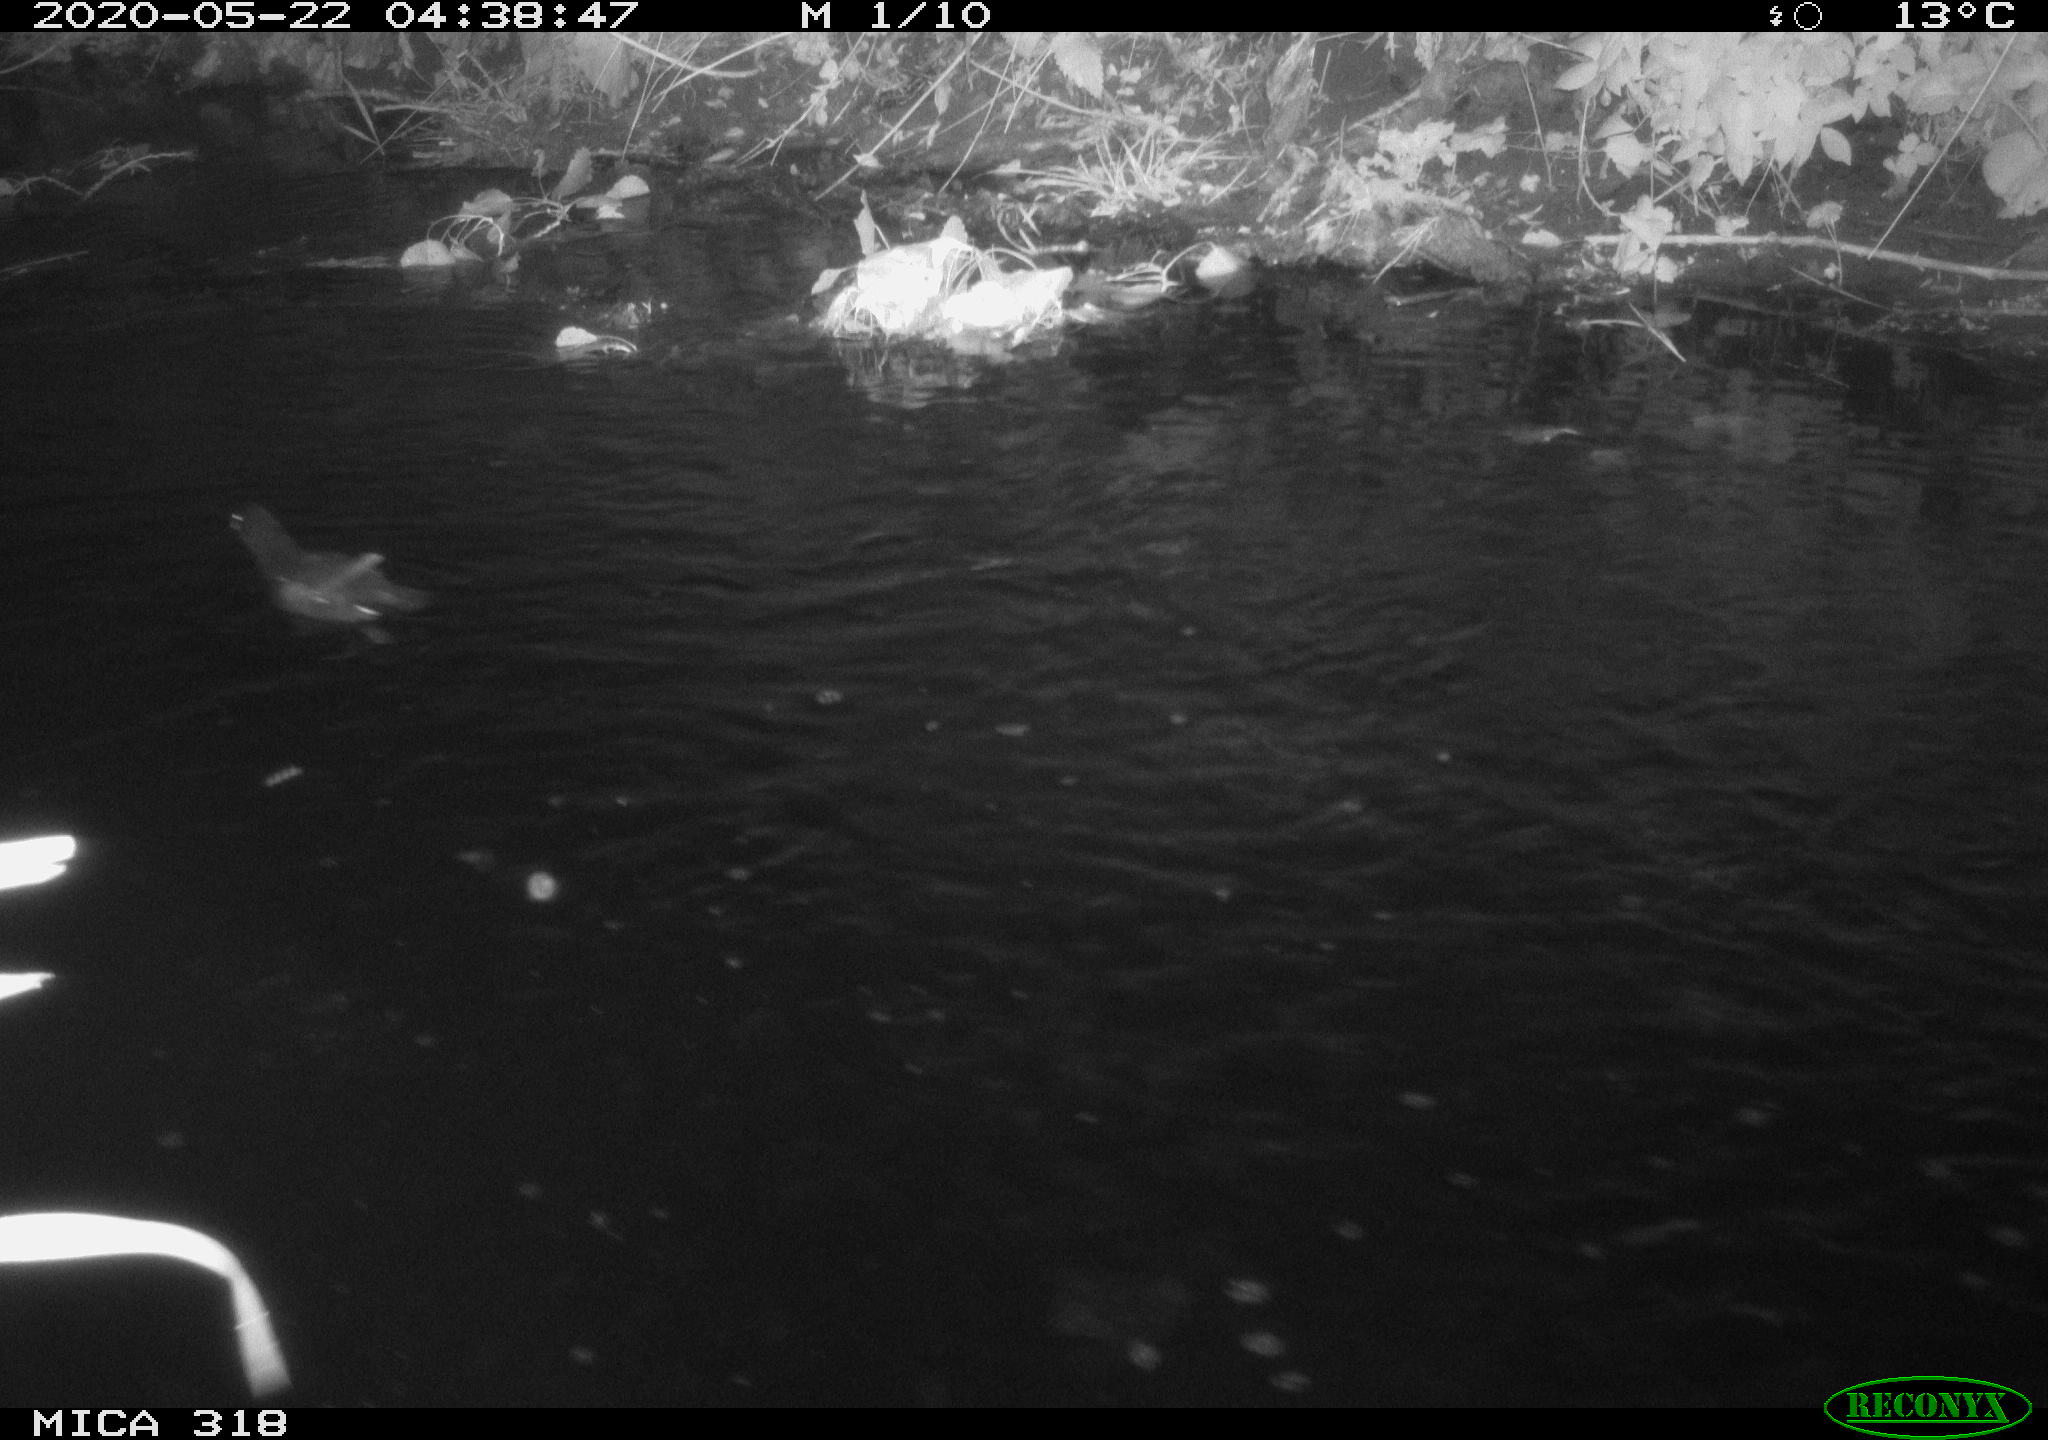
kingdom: Animalia
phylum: Chordata
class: Aves
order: Gruiformes
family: Rallidae
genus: Gallinula
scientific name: Gallinula chloropus
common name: Common moorhen
